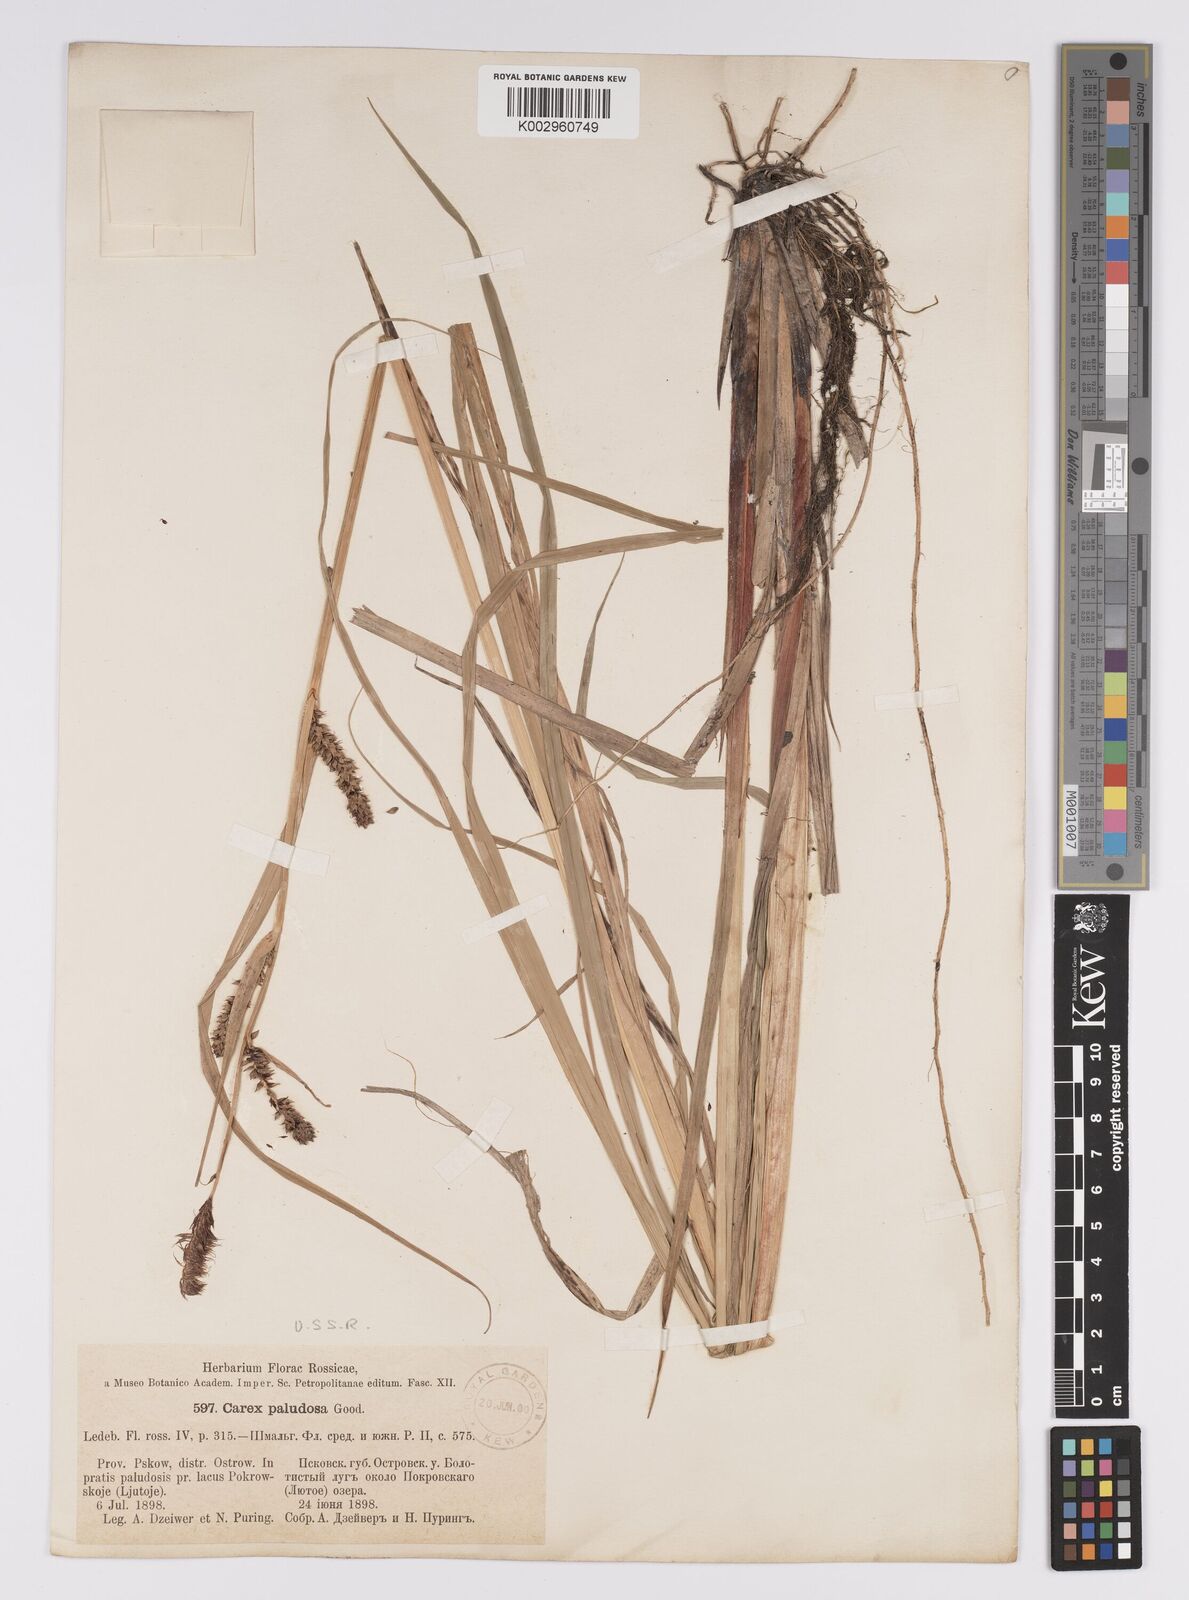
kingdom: Plantae
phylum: Tracheophyta
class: Liliopsida
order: Poales
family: Cyperaceae
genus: Carex
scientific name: Carex acutiformis
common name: Lesser pond-sedge
